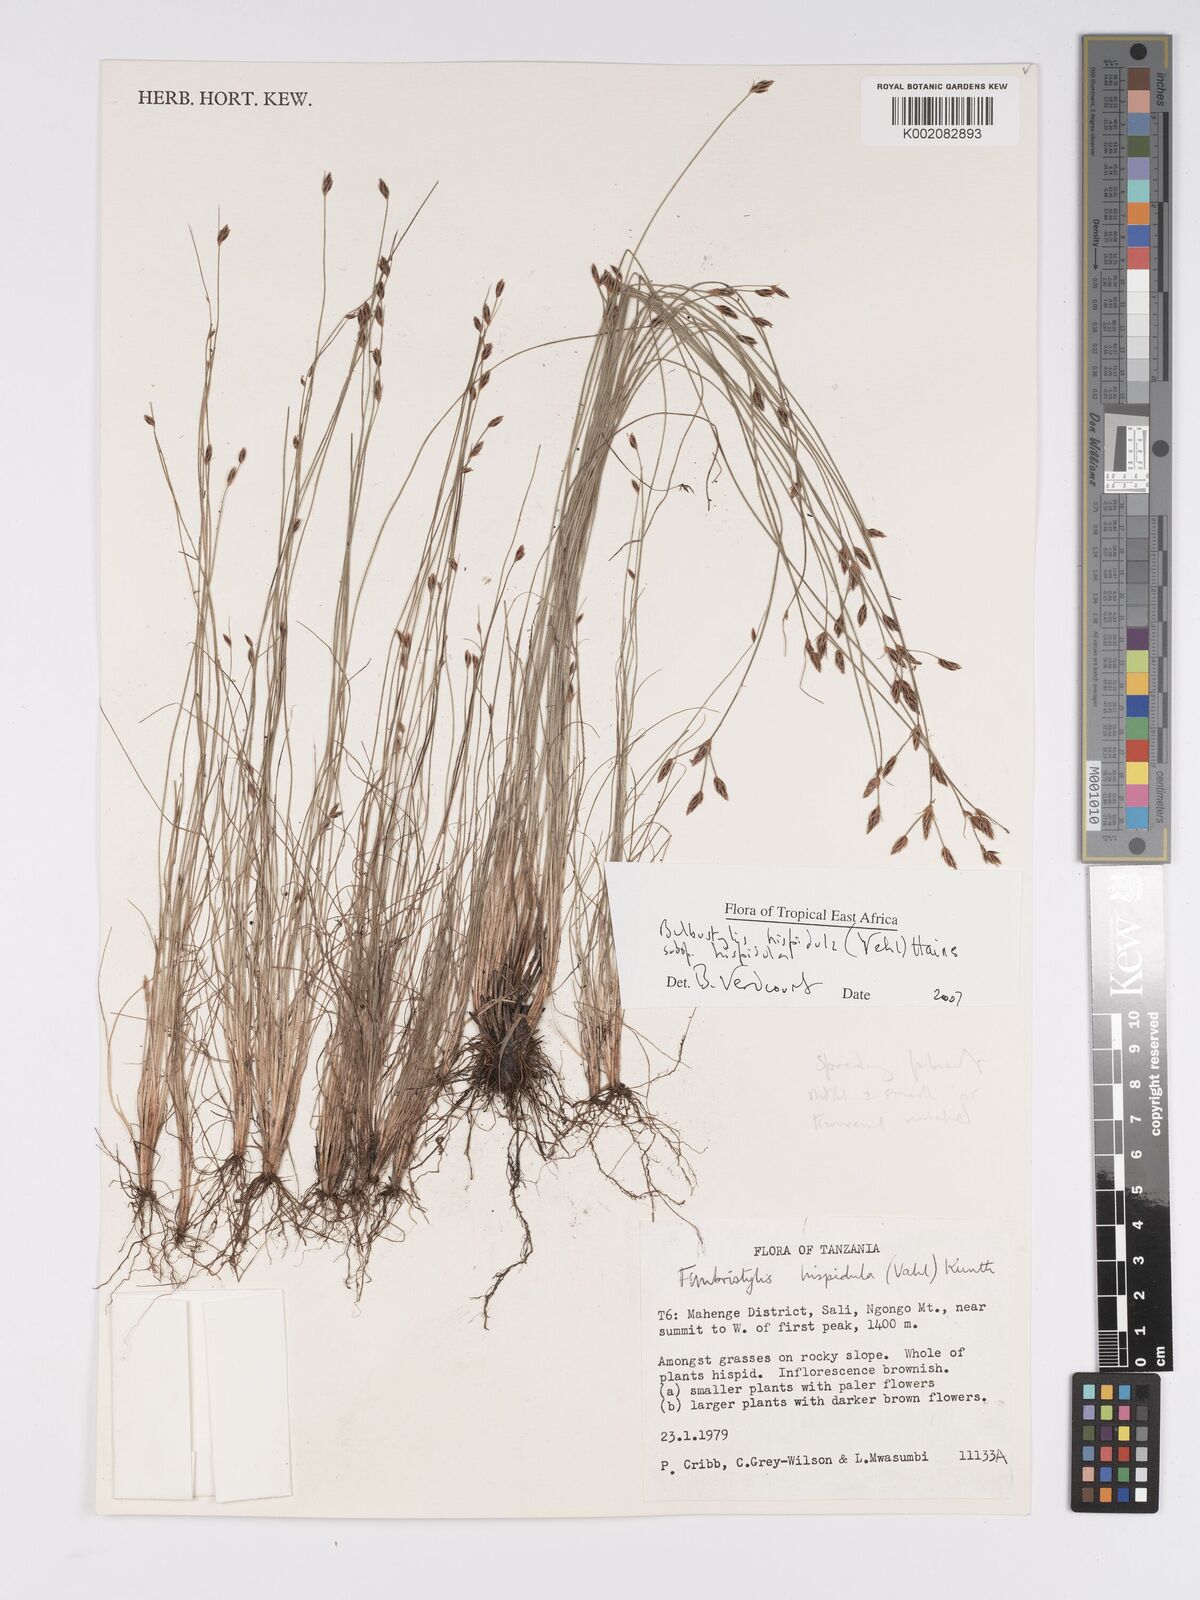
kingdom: Plantae
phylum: Tracheophyta
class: Liliopsida
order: Poales
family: Cyperaceae
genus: Bulbostylis
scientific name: Bulbostylis hispidula
